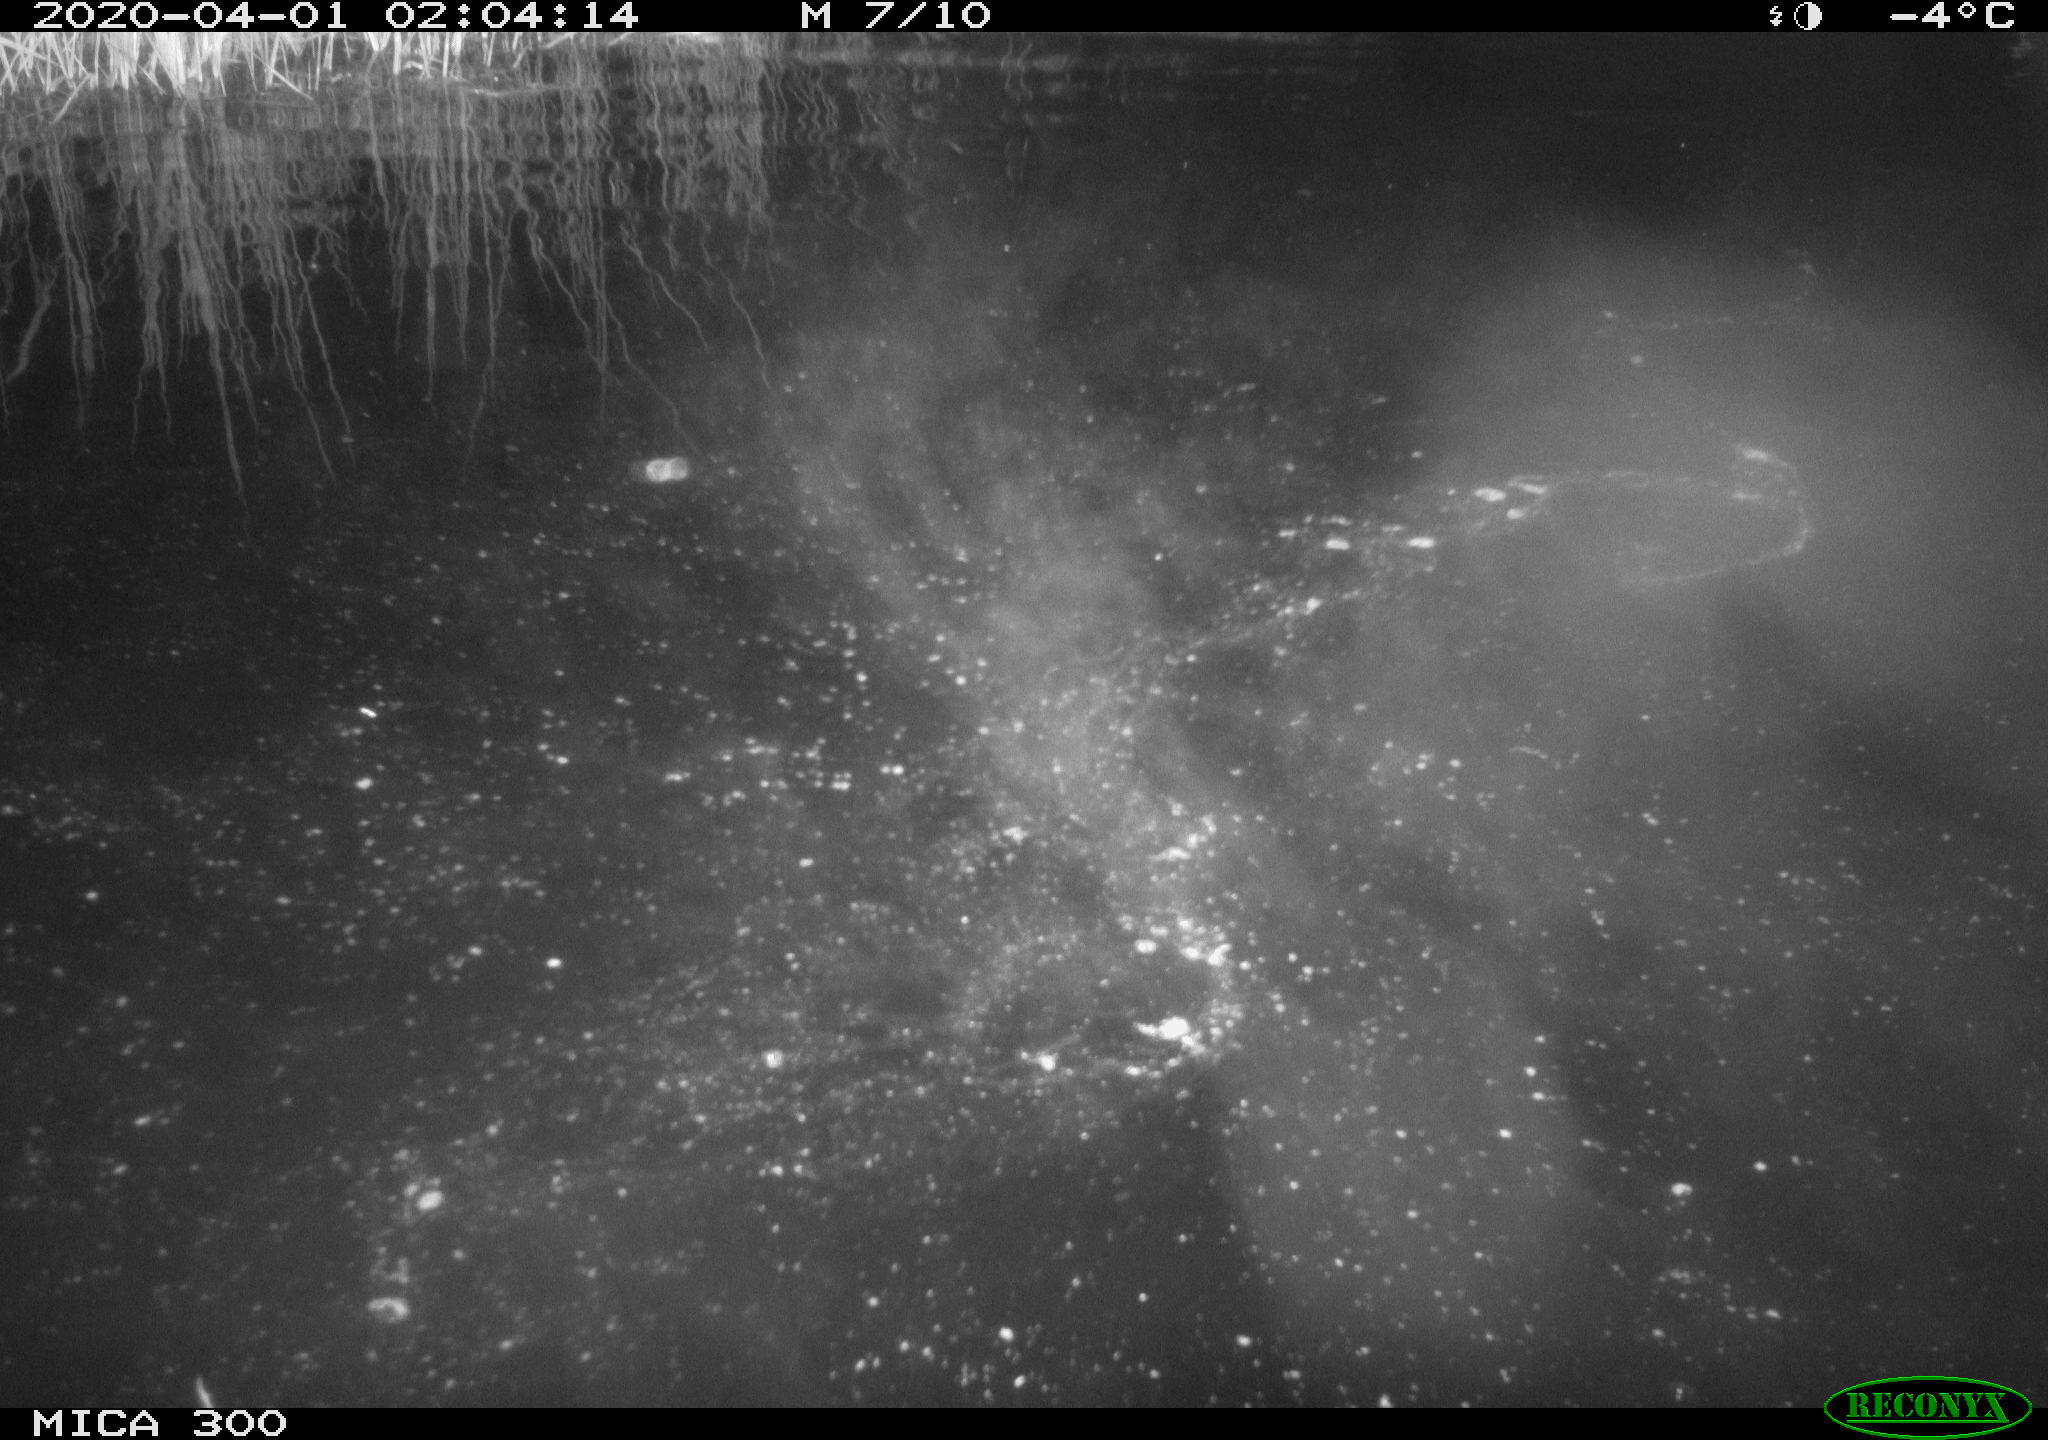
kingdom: Animalia
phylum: Chordata
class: Mammalia
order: Rodentia
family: Castoridae
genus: Castor
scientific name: Castor fiber
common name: Eurasian beaver
